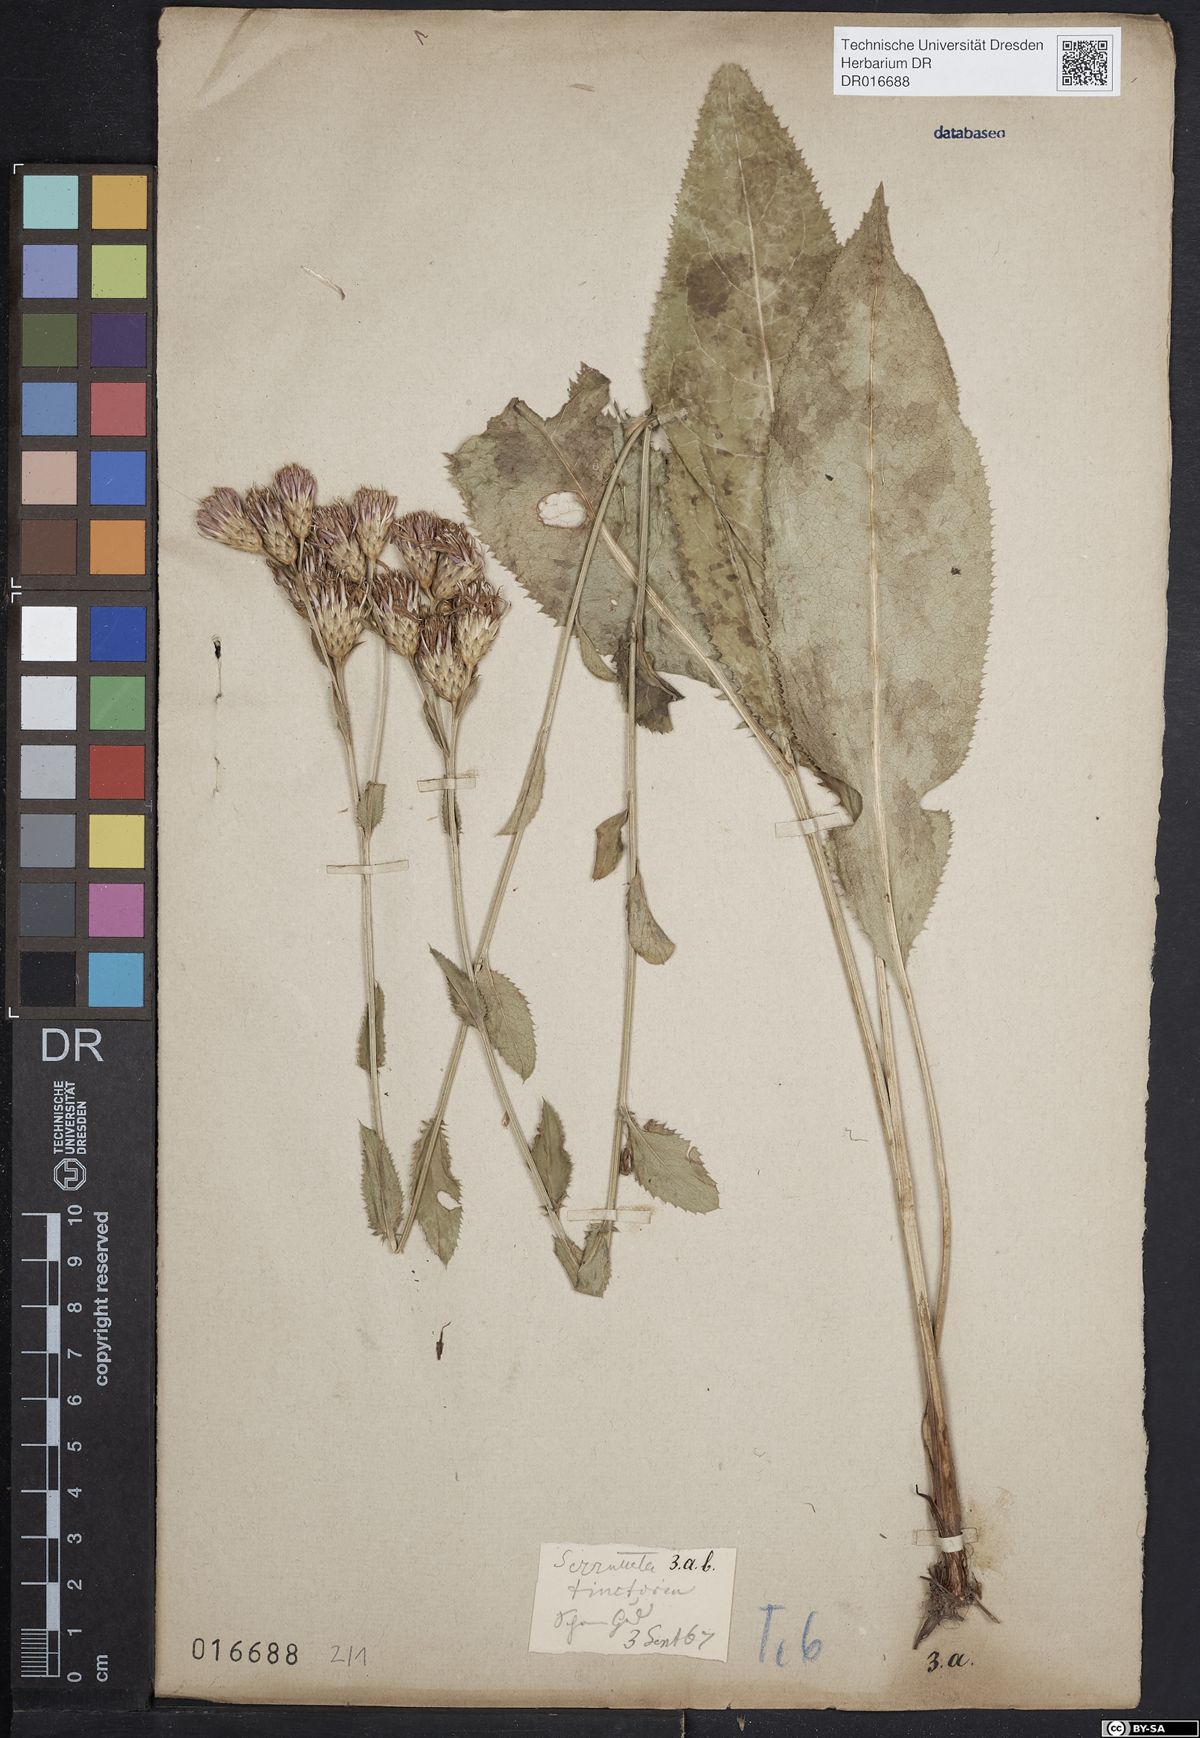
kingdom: Plantae
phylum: Tracheophyta
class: Magnoliopsida
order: Asterales
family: Asteraceae
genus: Serratula
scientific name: Serratula tinctoria
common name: Saw-wort
